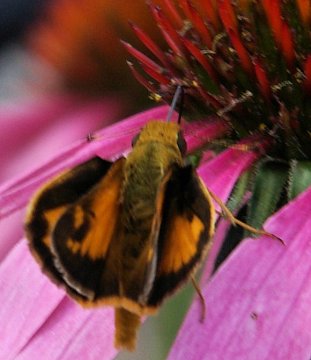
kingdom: Animalia
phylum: Arthropoda
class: Insecta
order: Lepidoptera
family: Hesperiidae
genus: Lon
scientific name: Lon zabulon
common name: Zabulon Skipper
